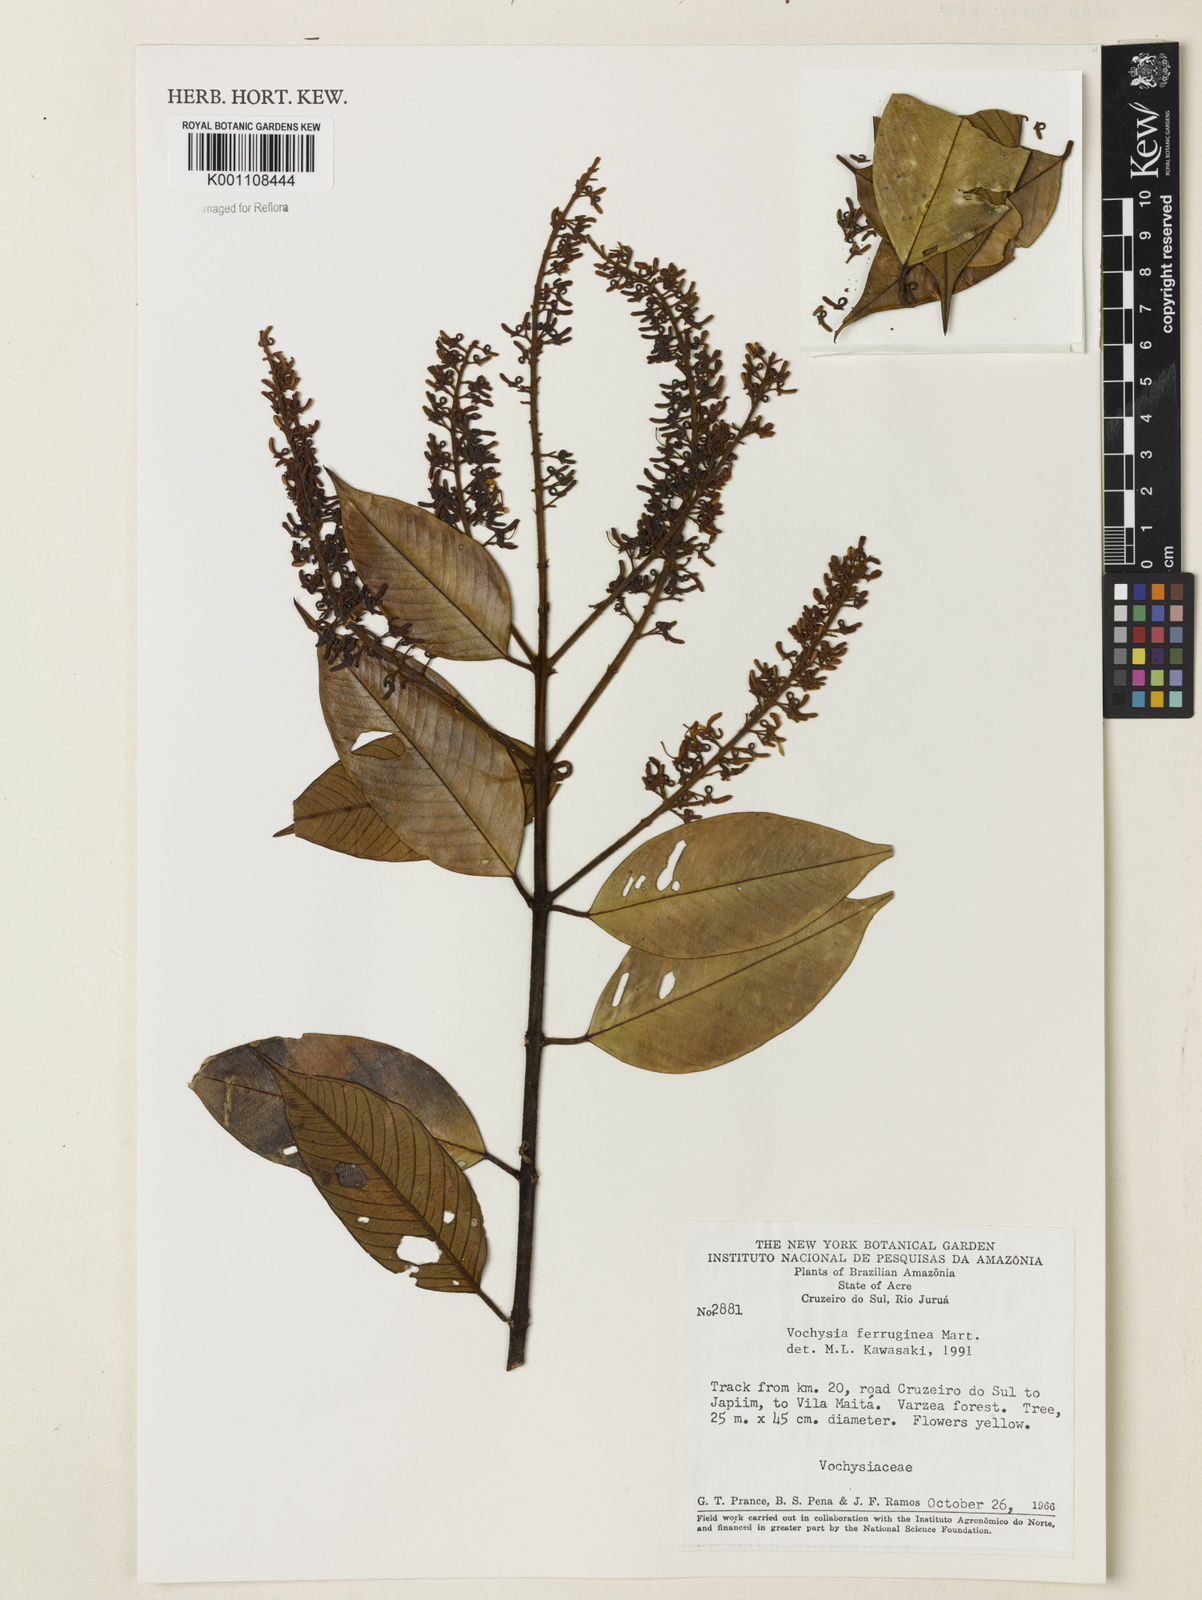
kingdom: Plantae
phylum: Tracheophyta
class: Magnoliopsida
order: Myrtales
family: Vochysiaceae
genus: Vochysia
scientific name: Vochysia ferruginea
